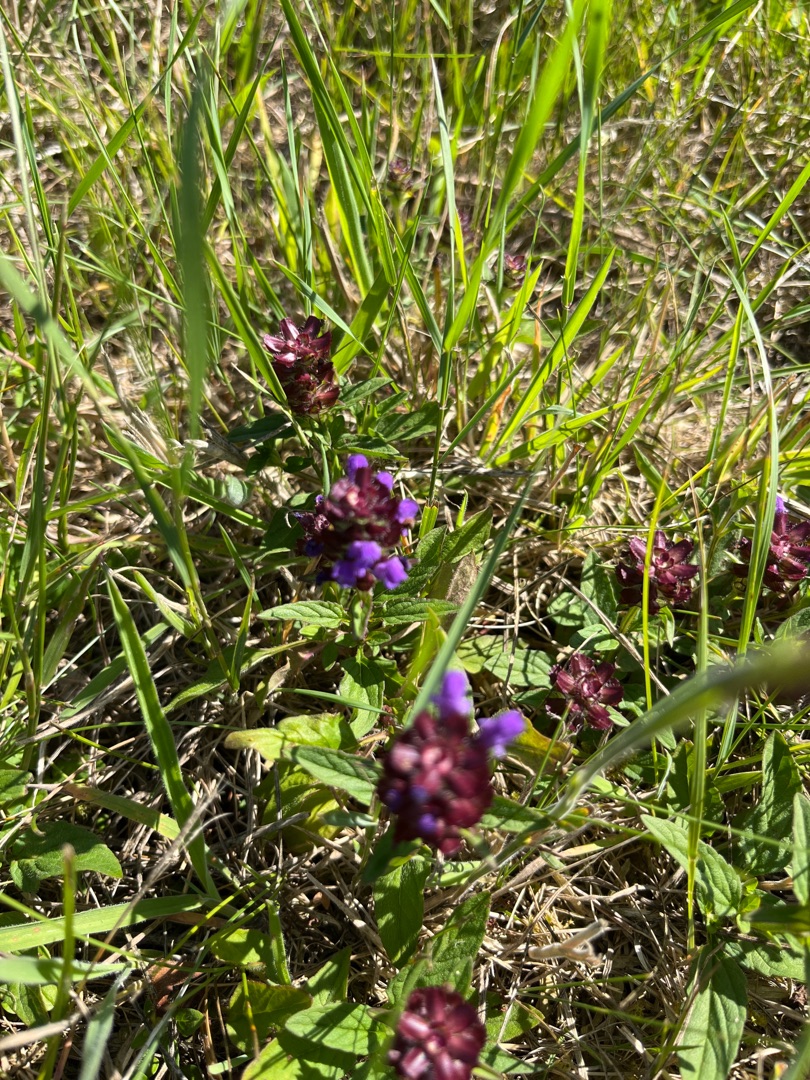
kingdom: Plantae
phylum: Tracheophyta
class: Magnoliopsida
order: Lamiales
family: Lamiaceae
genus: Prunella
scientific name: Prunella vulgaris
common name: Almindelig brunelle
